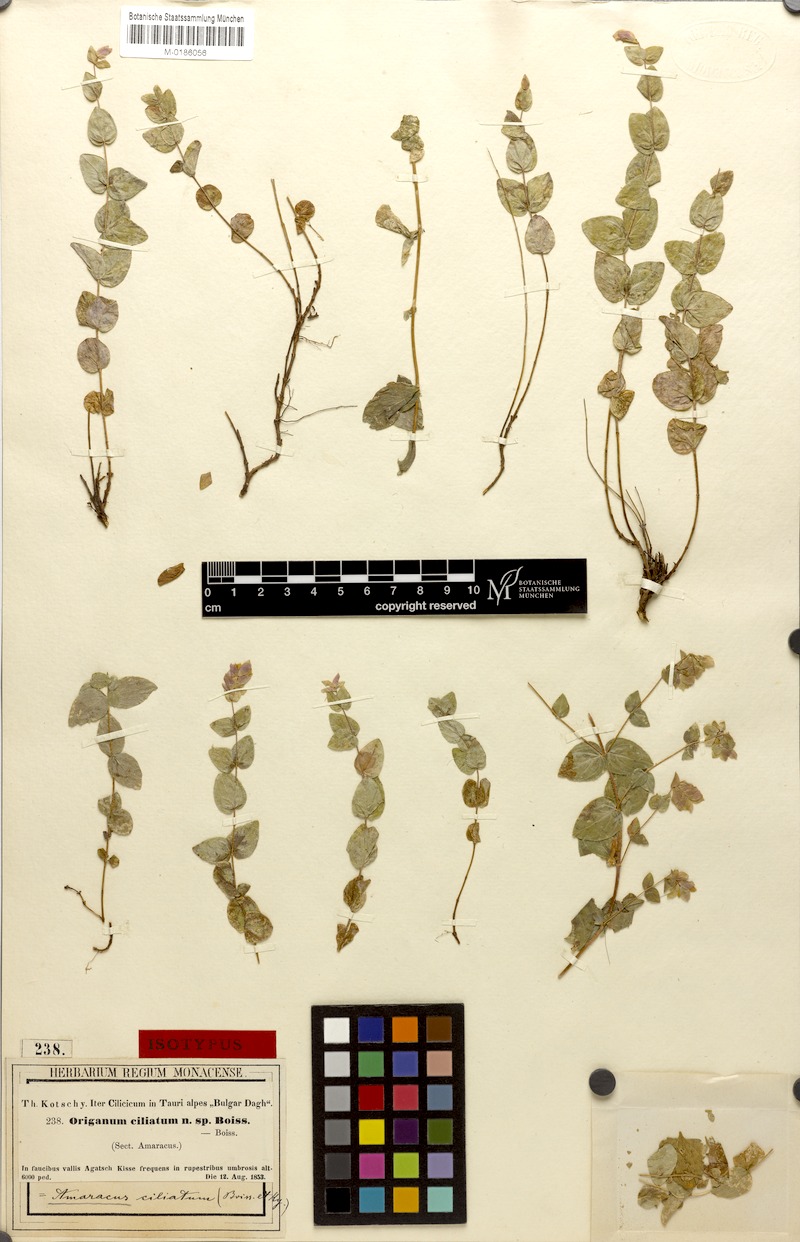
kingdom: Plantae
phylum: Tracheophyta
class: Magnoliopsida
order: Lamiales
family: Lamiaceae
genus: Origanum
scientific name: Origanum boissieri
